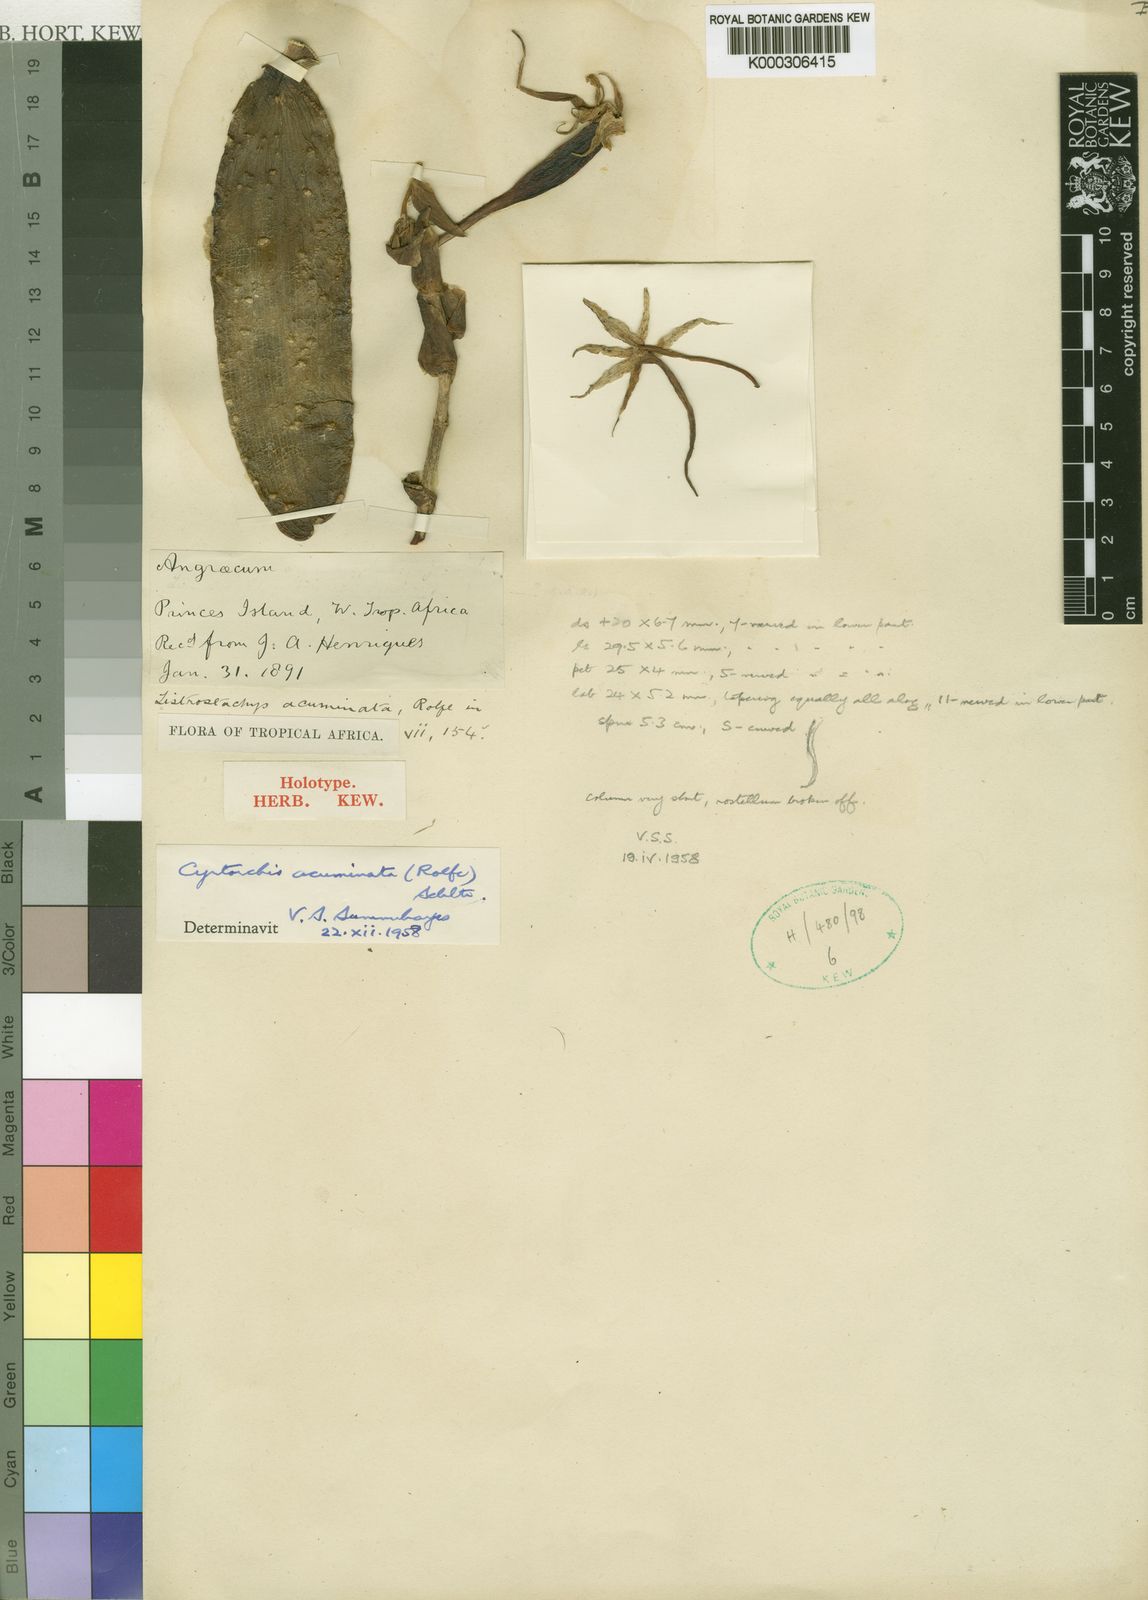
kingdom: Plantae
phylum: Tracheophyta
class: Liliopsida
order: Asparagales
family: Orchidaceae
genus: Cyrtorchis
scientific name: Cyrtorchis arcuata
